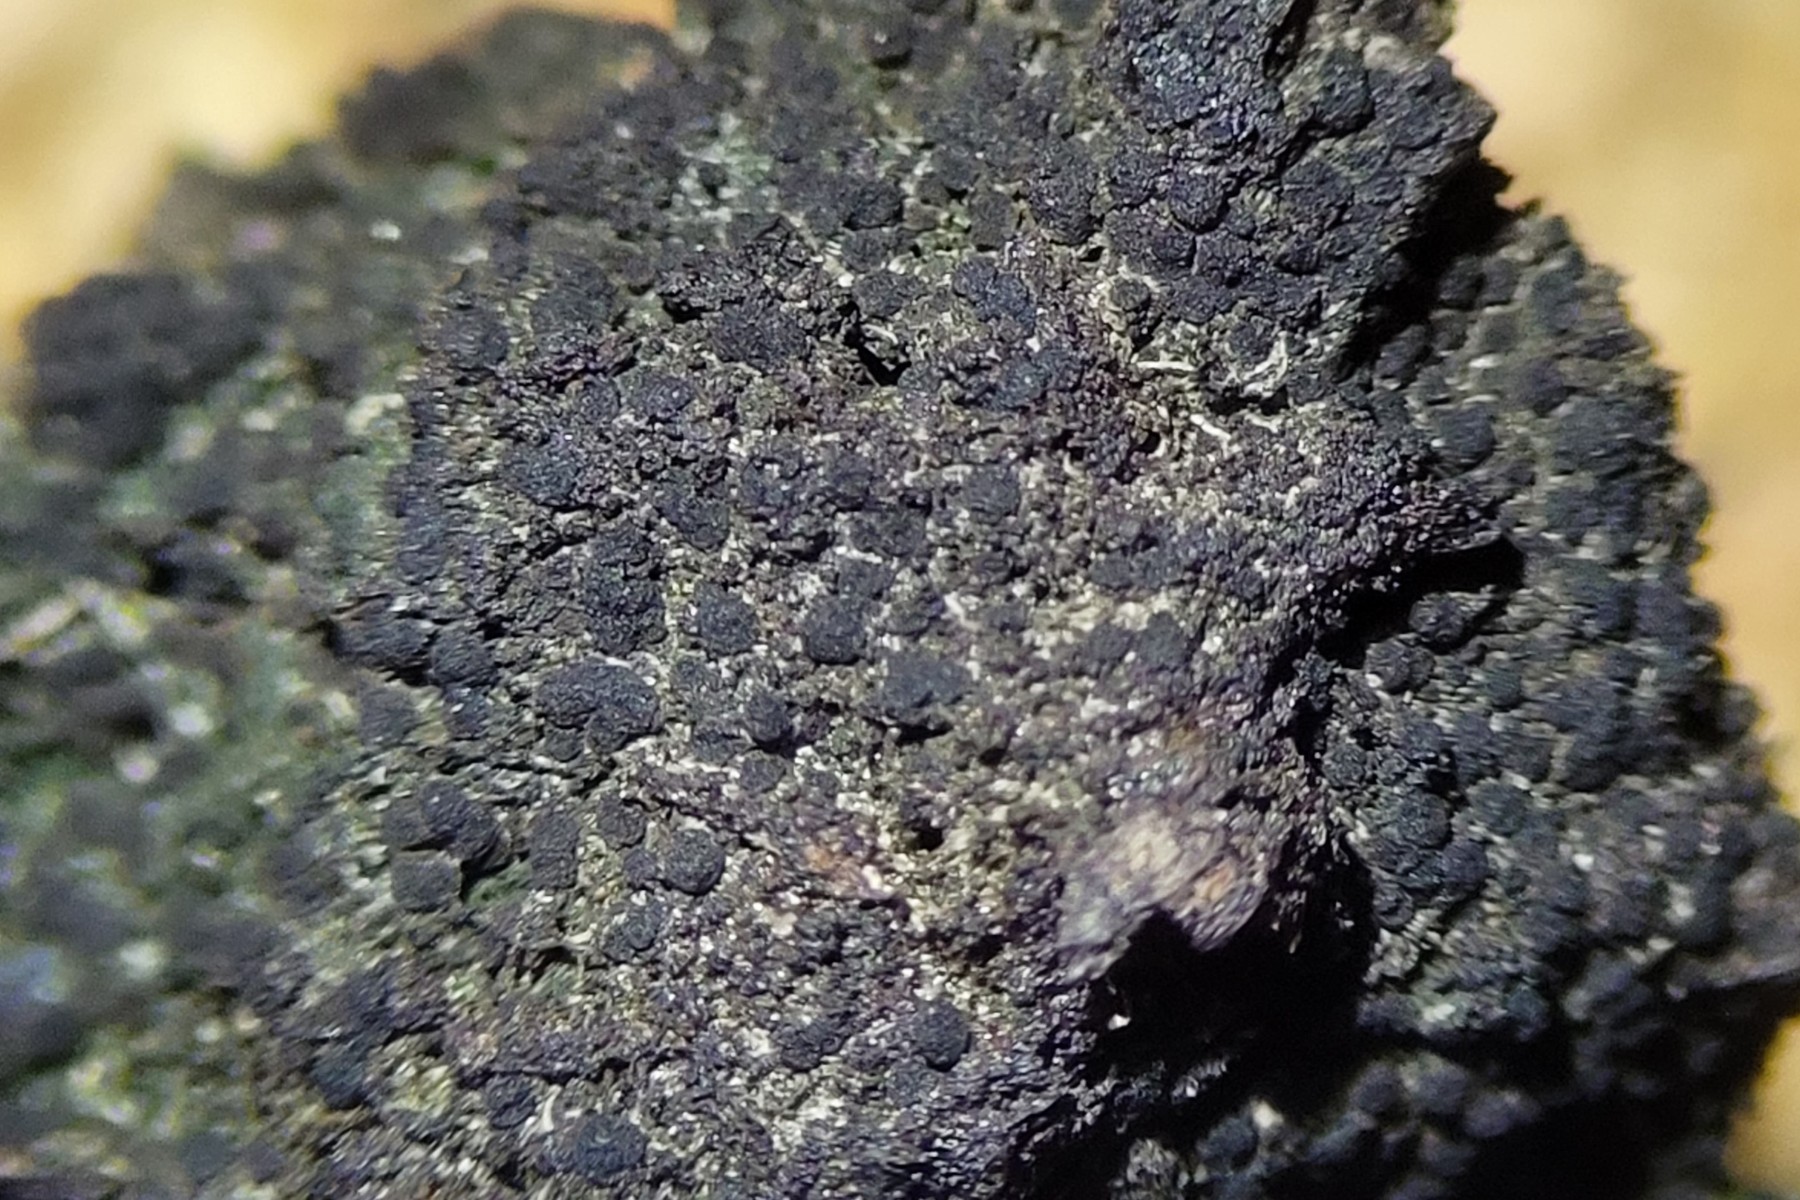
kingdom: Fungi
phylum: Ascomycota
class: Lecanoromycetes
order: Baeomycetales
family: Trapeliaceae
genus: Placynthiella
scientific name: Placynthiella icmalea
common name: stift-skivelav
